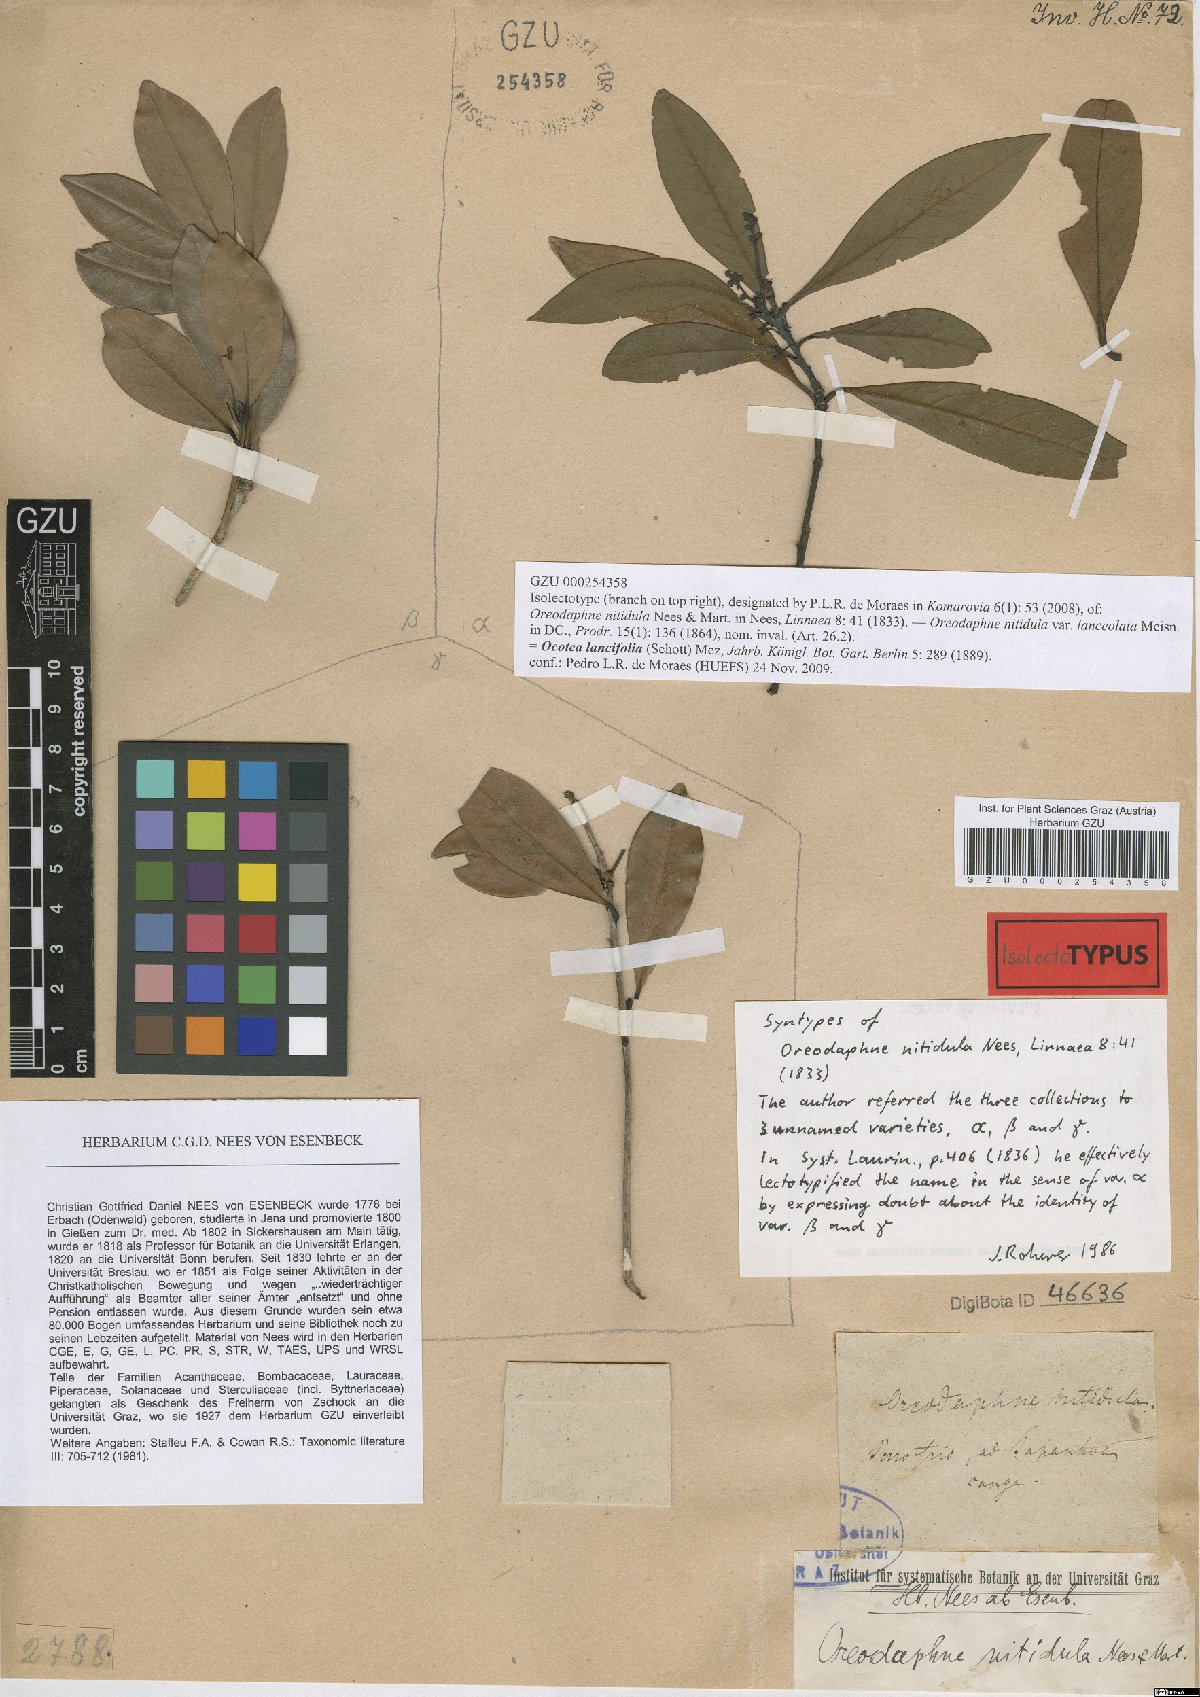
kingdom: Plantae
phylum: Tracheophyta
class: Magnoliopsida
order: Laurales
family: Lauraceae
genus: Ocotea
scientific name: Ocotea lancifolia
